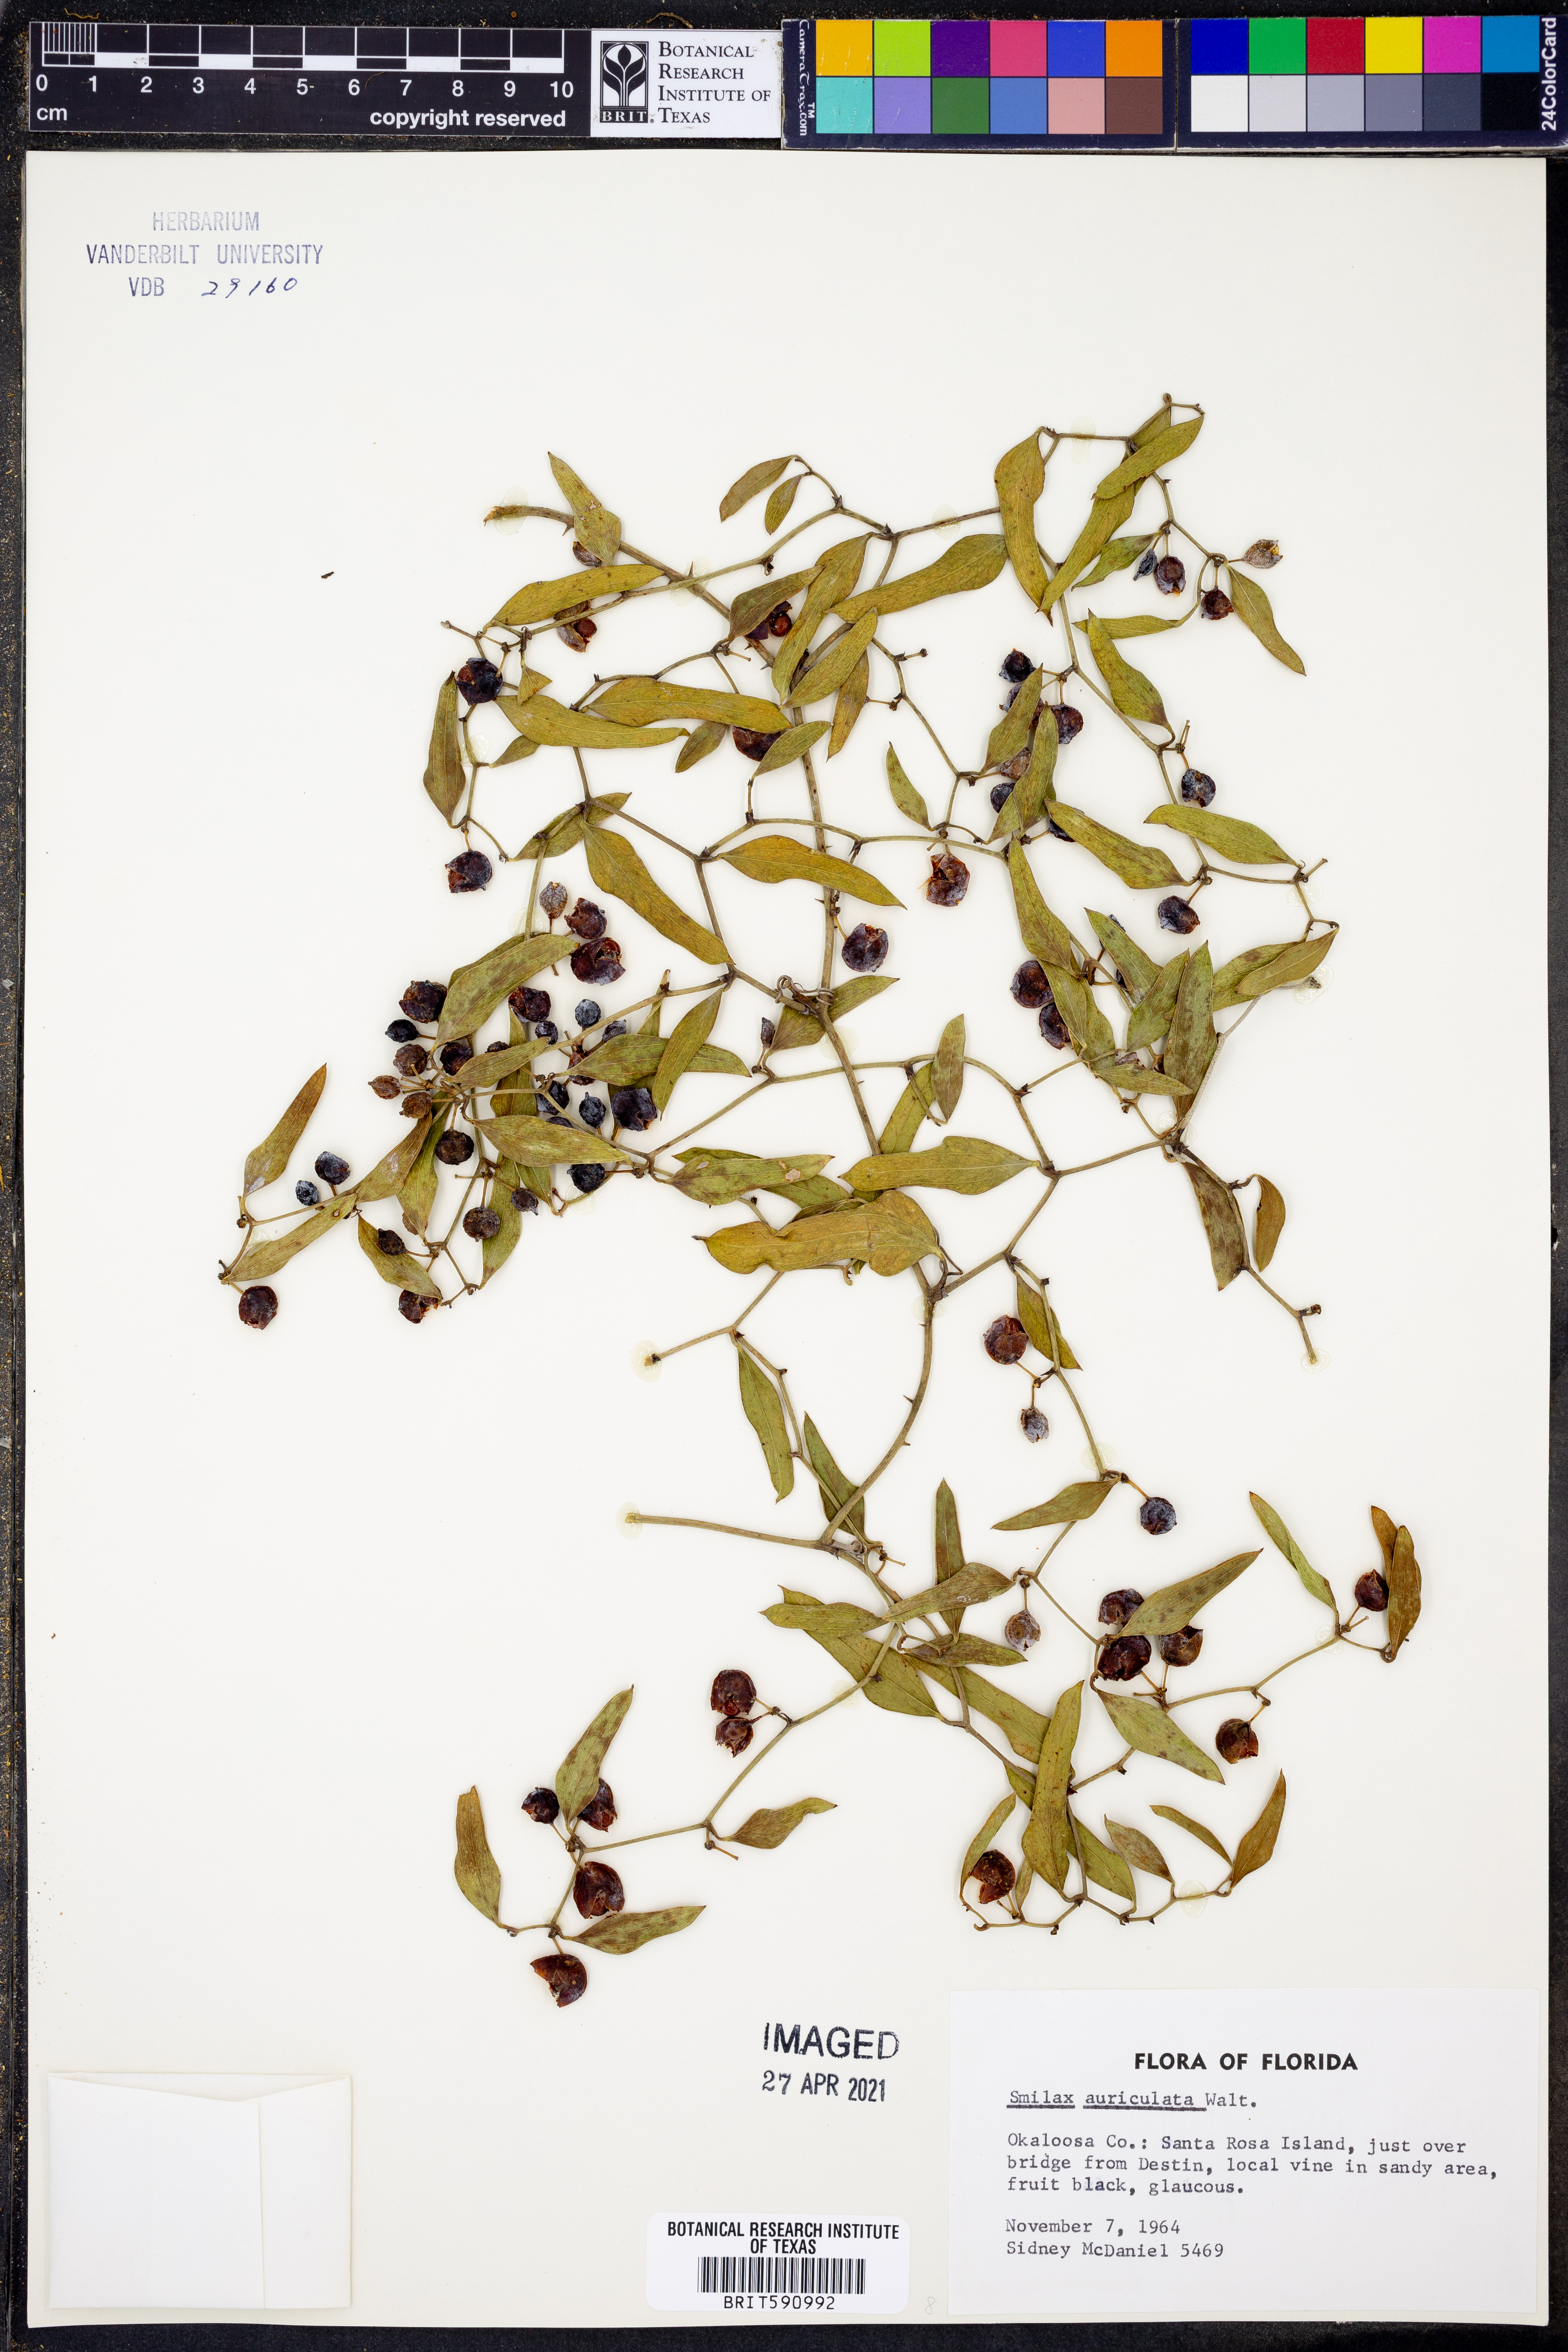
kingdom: Plantae
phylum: Tracheophyta
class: Liliopsida
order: Liliales
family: Smilacaceae
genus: Smilax
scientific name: Smilax auriculata
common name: Wild bamboo
